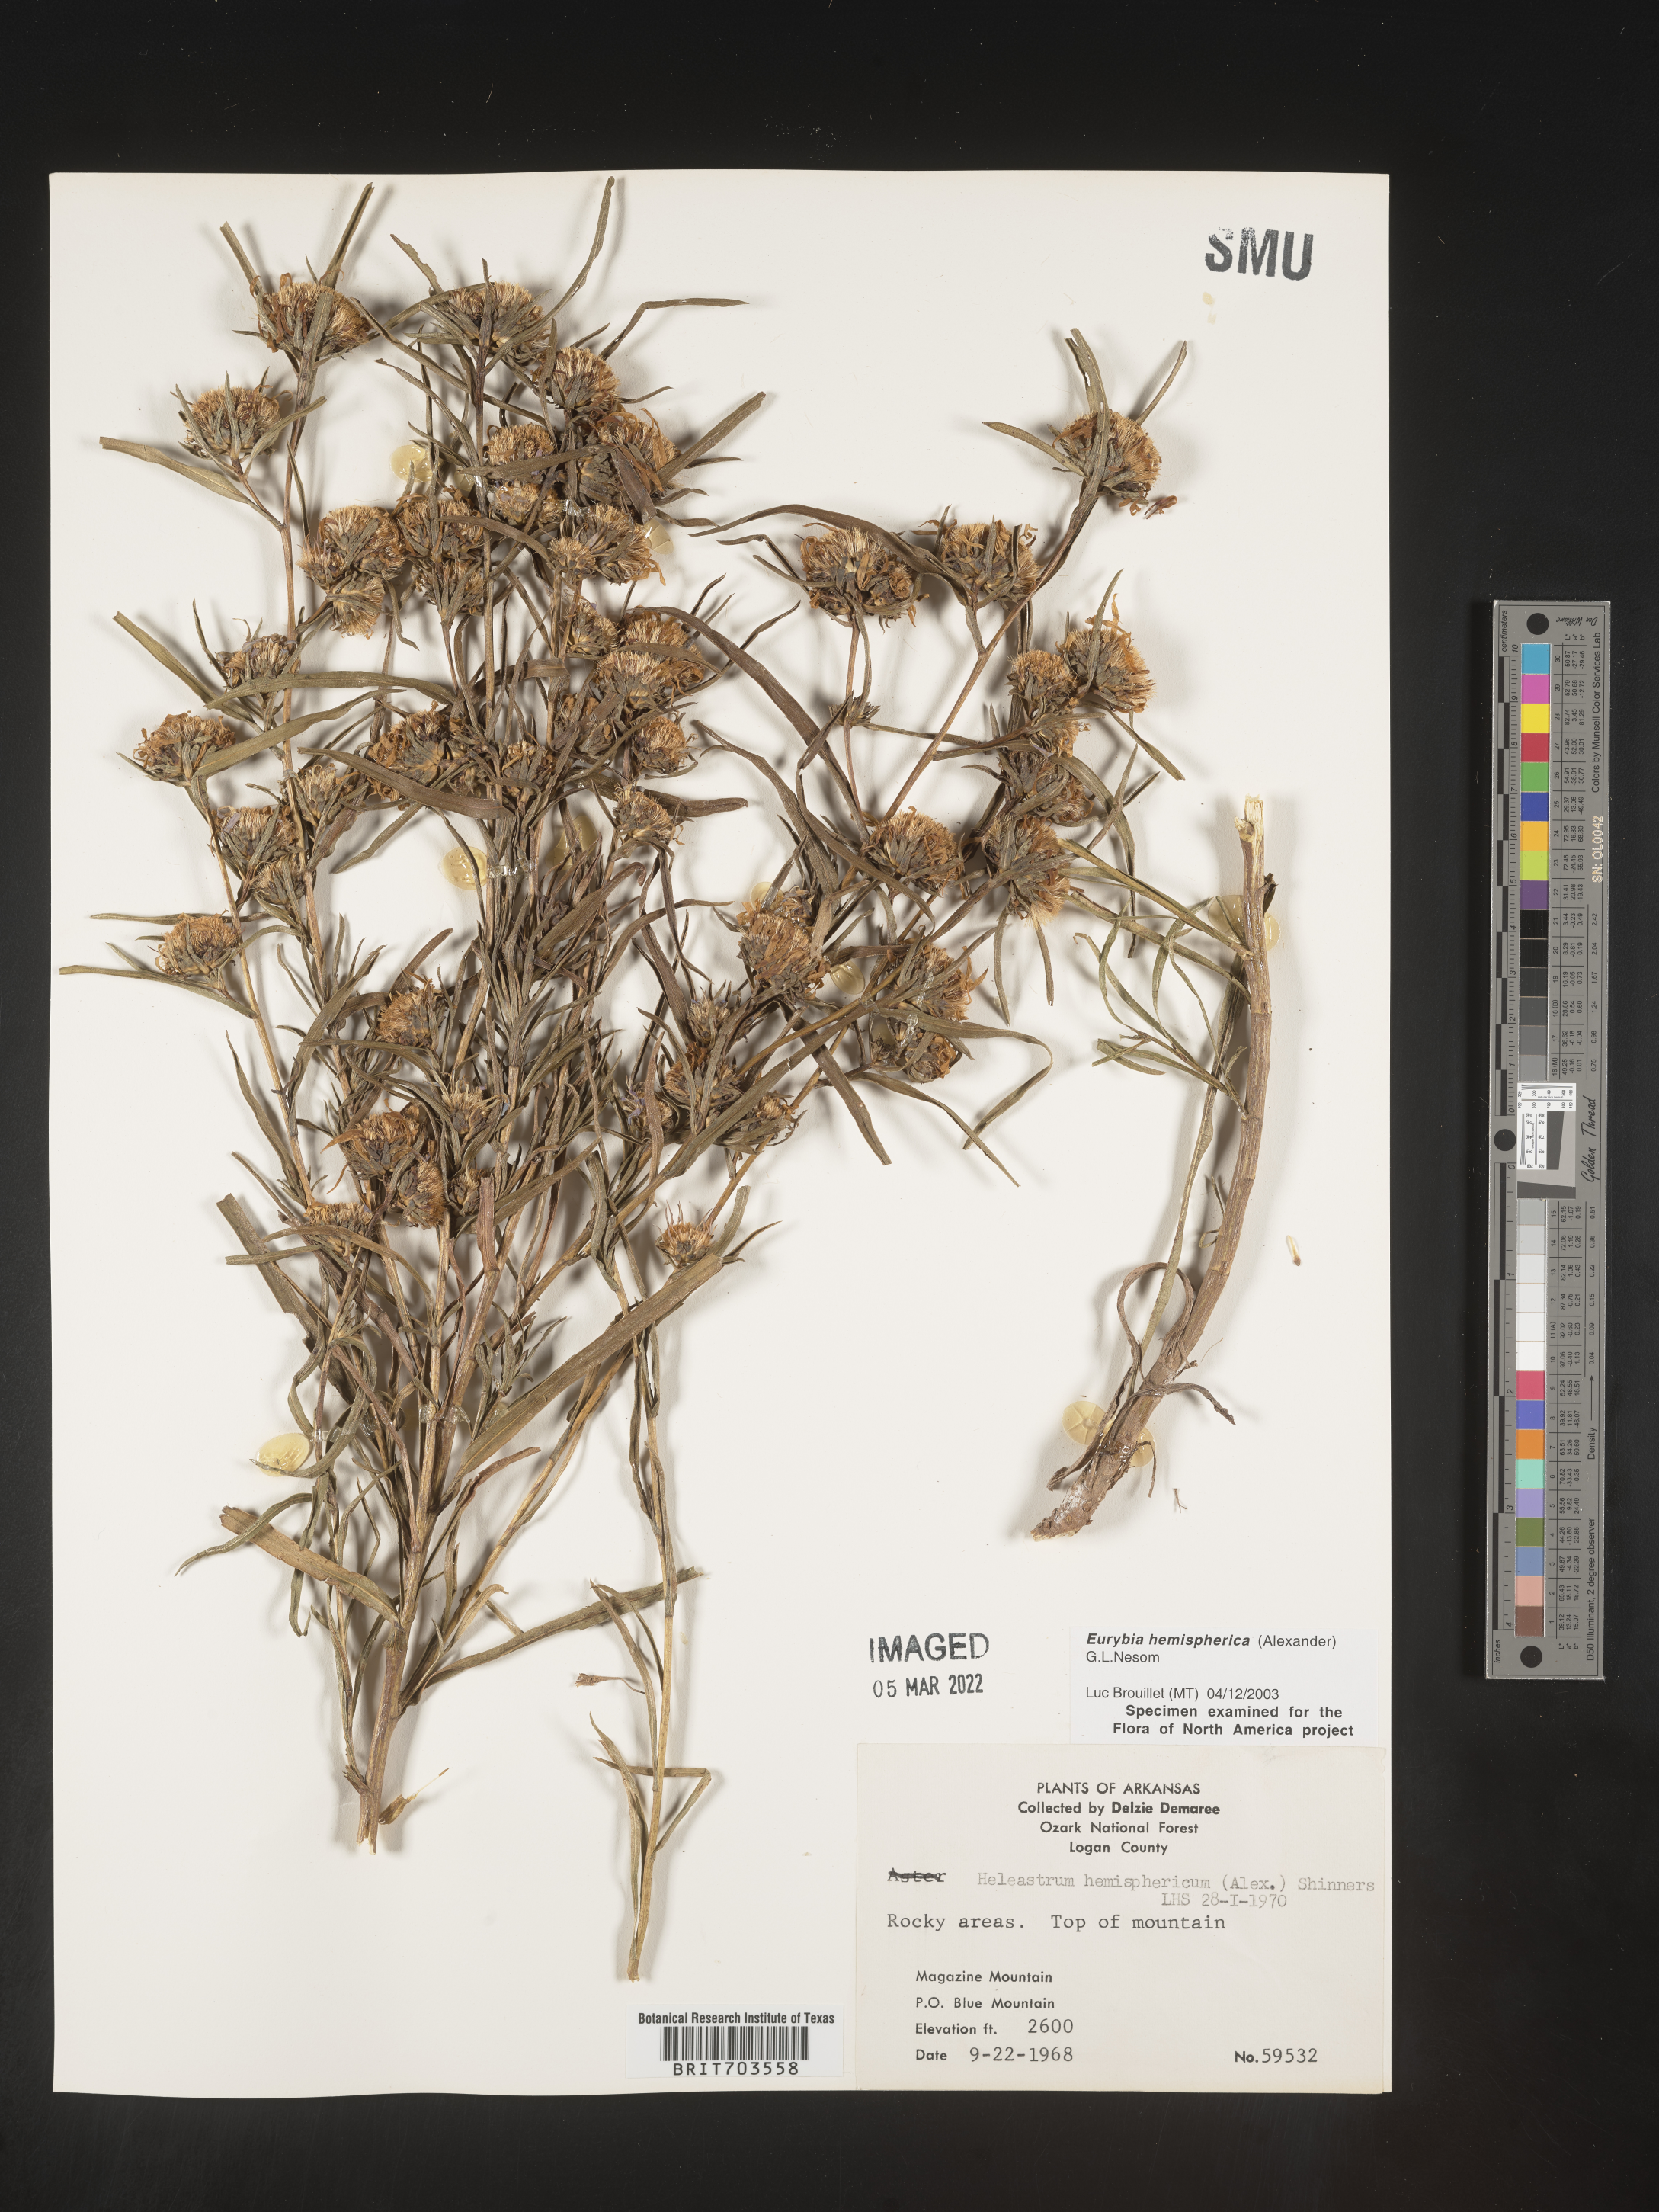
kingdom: Plantae
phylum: Tracheophyta
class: Magnoliopsida
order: Asterales
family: Asteraceae
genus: Eurybia
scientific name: Eurybia hemispherica
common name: Showy aster
